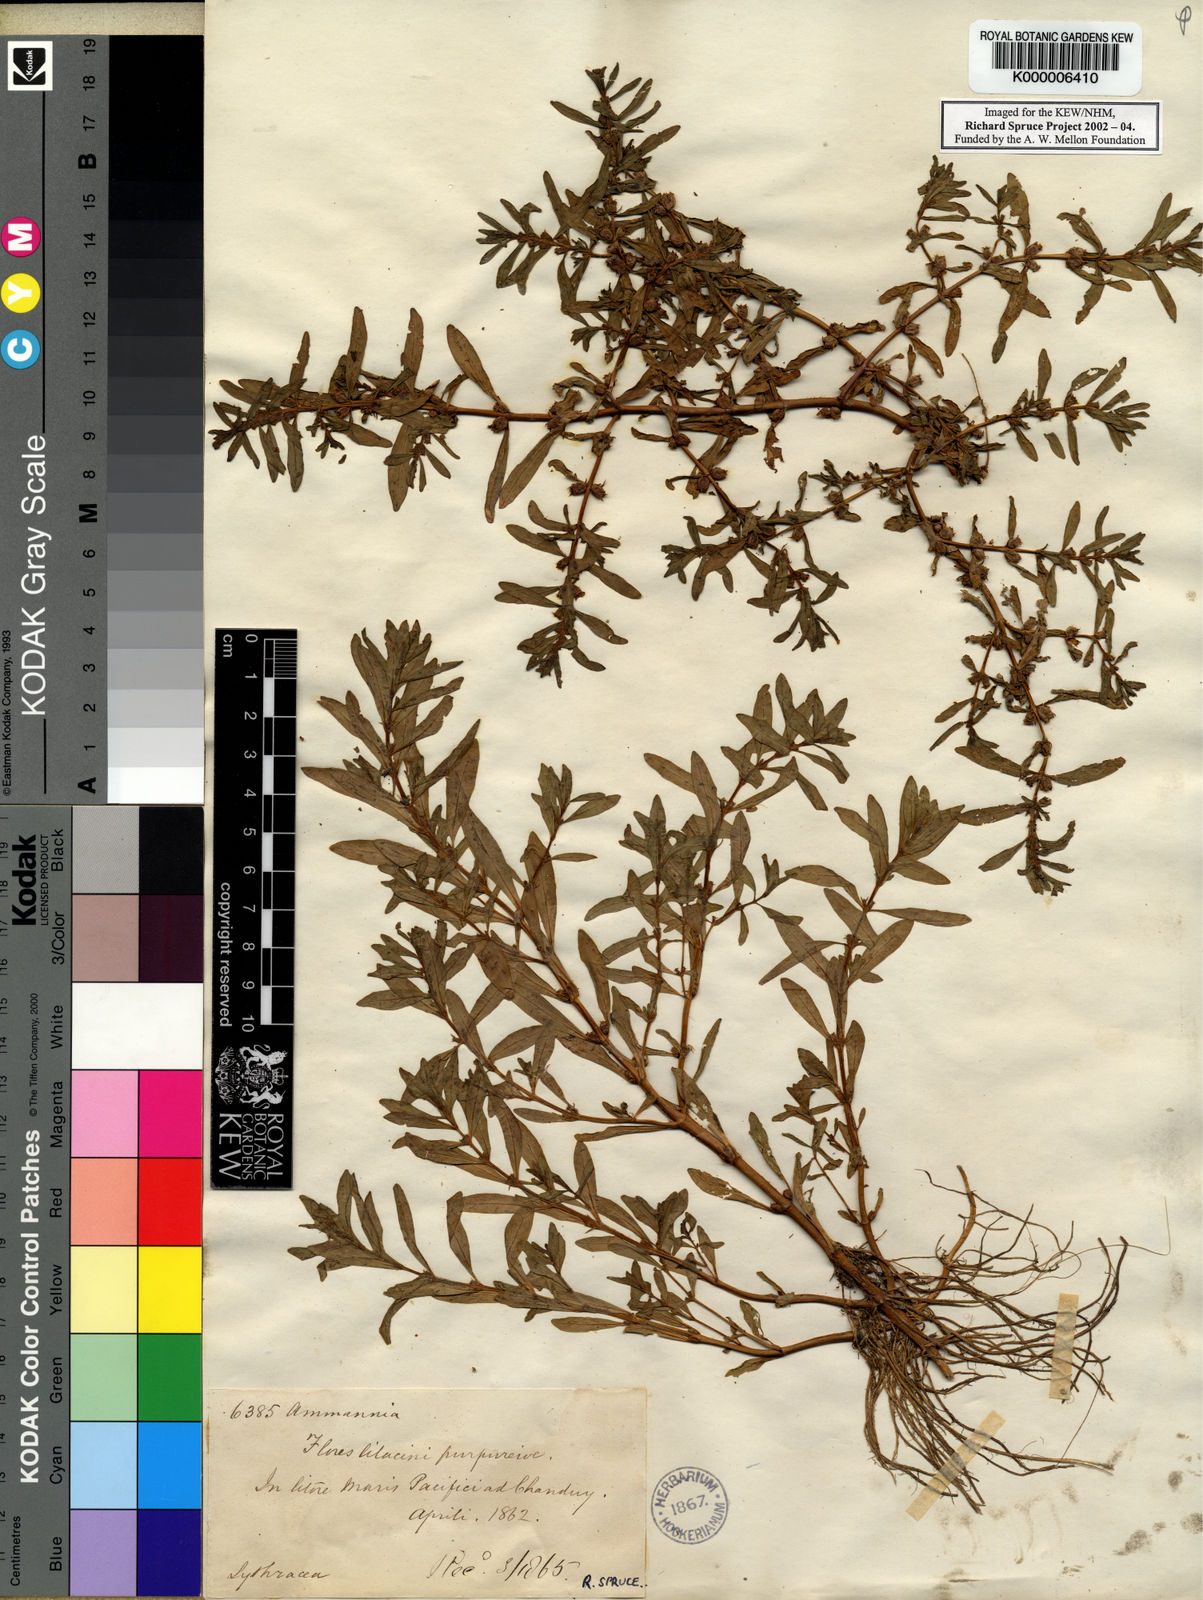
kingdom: Plantae
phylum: Tracheophyta
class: Magnoliopsida
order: Myrtales
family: Lythraceae
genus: Rotala
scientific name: Rotala ramosior
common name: Lowland rotala
